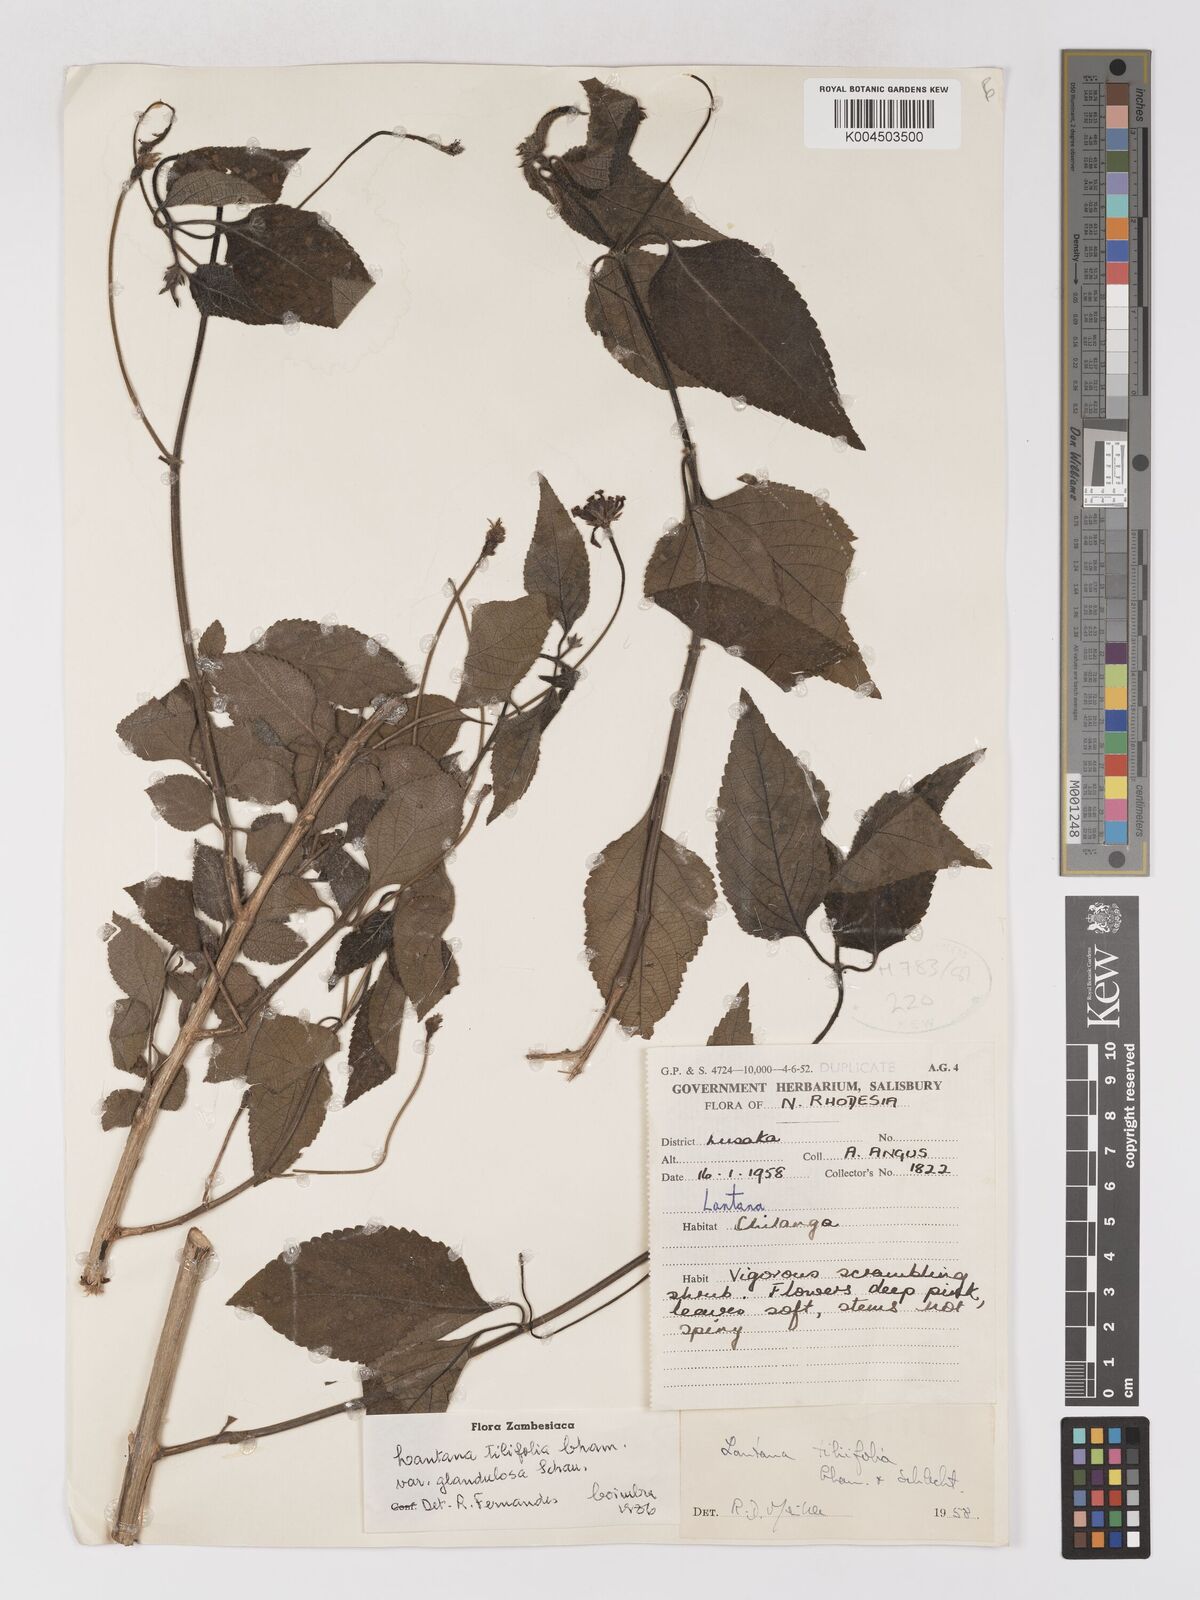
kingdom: Plantae
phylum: Tracheophyta
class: Magnoliopsida
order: Lamiales
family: Verbenaceae
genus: Lantana
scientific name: Lantana horrida
